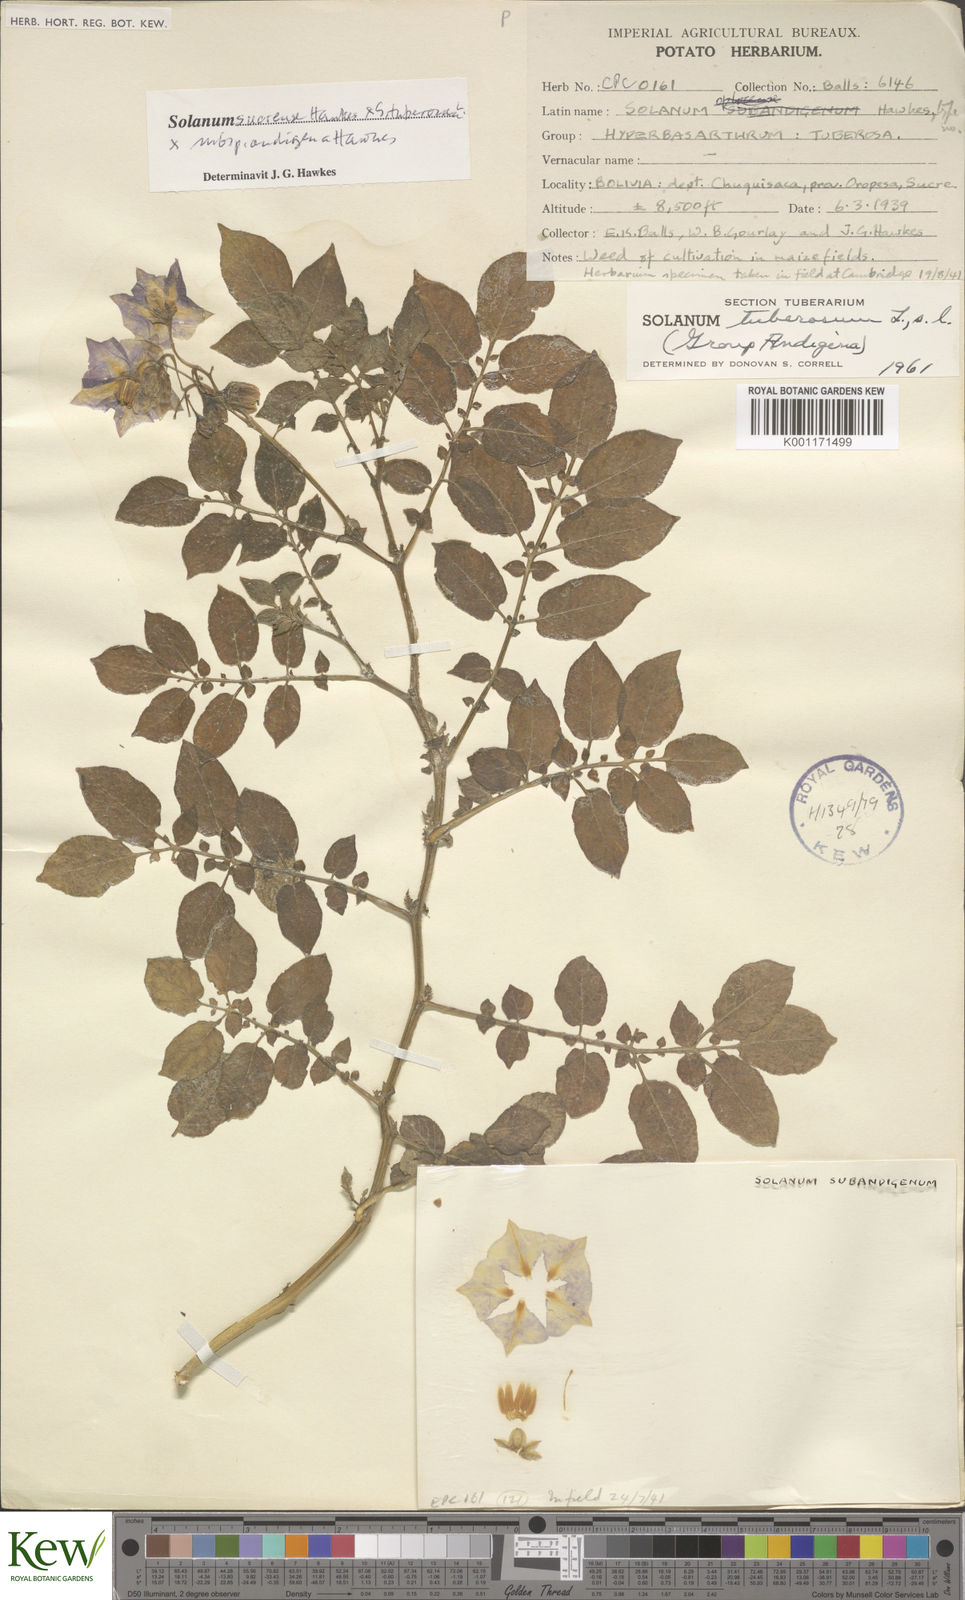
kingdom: Plantae
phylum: Tracheophyta
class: Magnoliopsida
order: Solanales
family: Solanaceae
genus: Solanum
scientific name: Solanum tuberosum
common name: Potato
